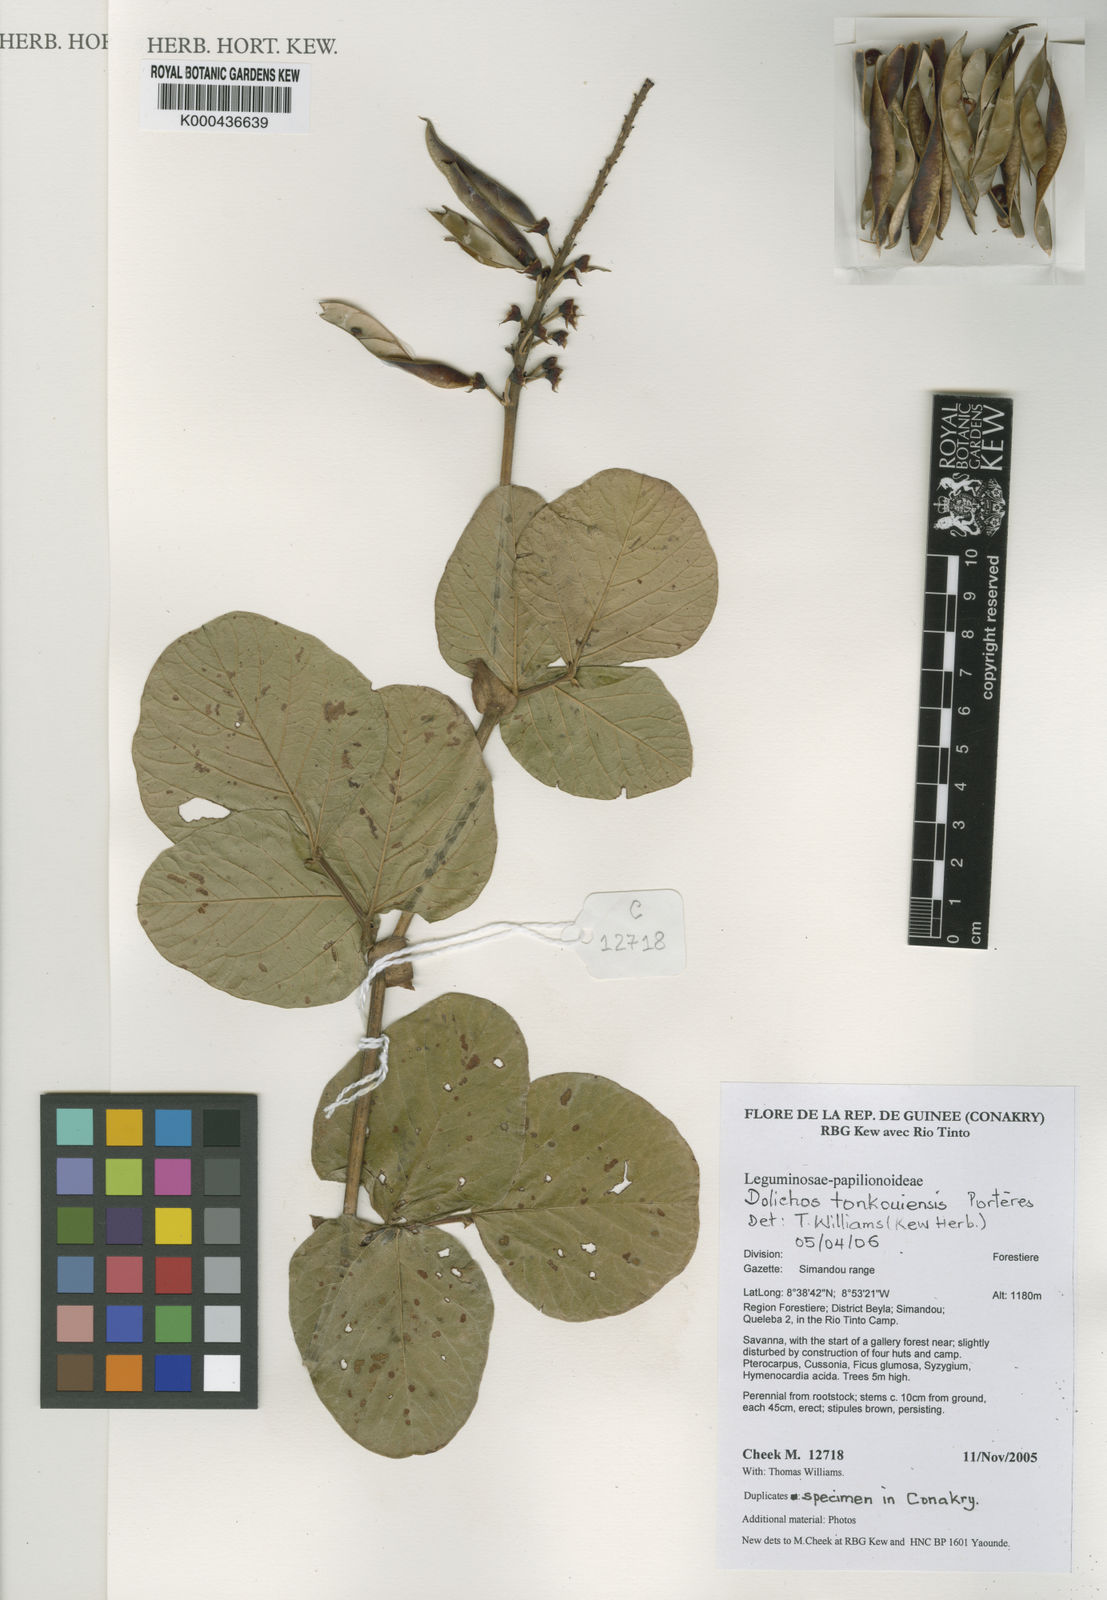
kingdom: Plantae
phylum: Tracheophyta
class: Magnoliopsida
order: Fabales
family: Fabaceae
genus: Dolichos
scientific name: Dolichos tonkouiensis
